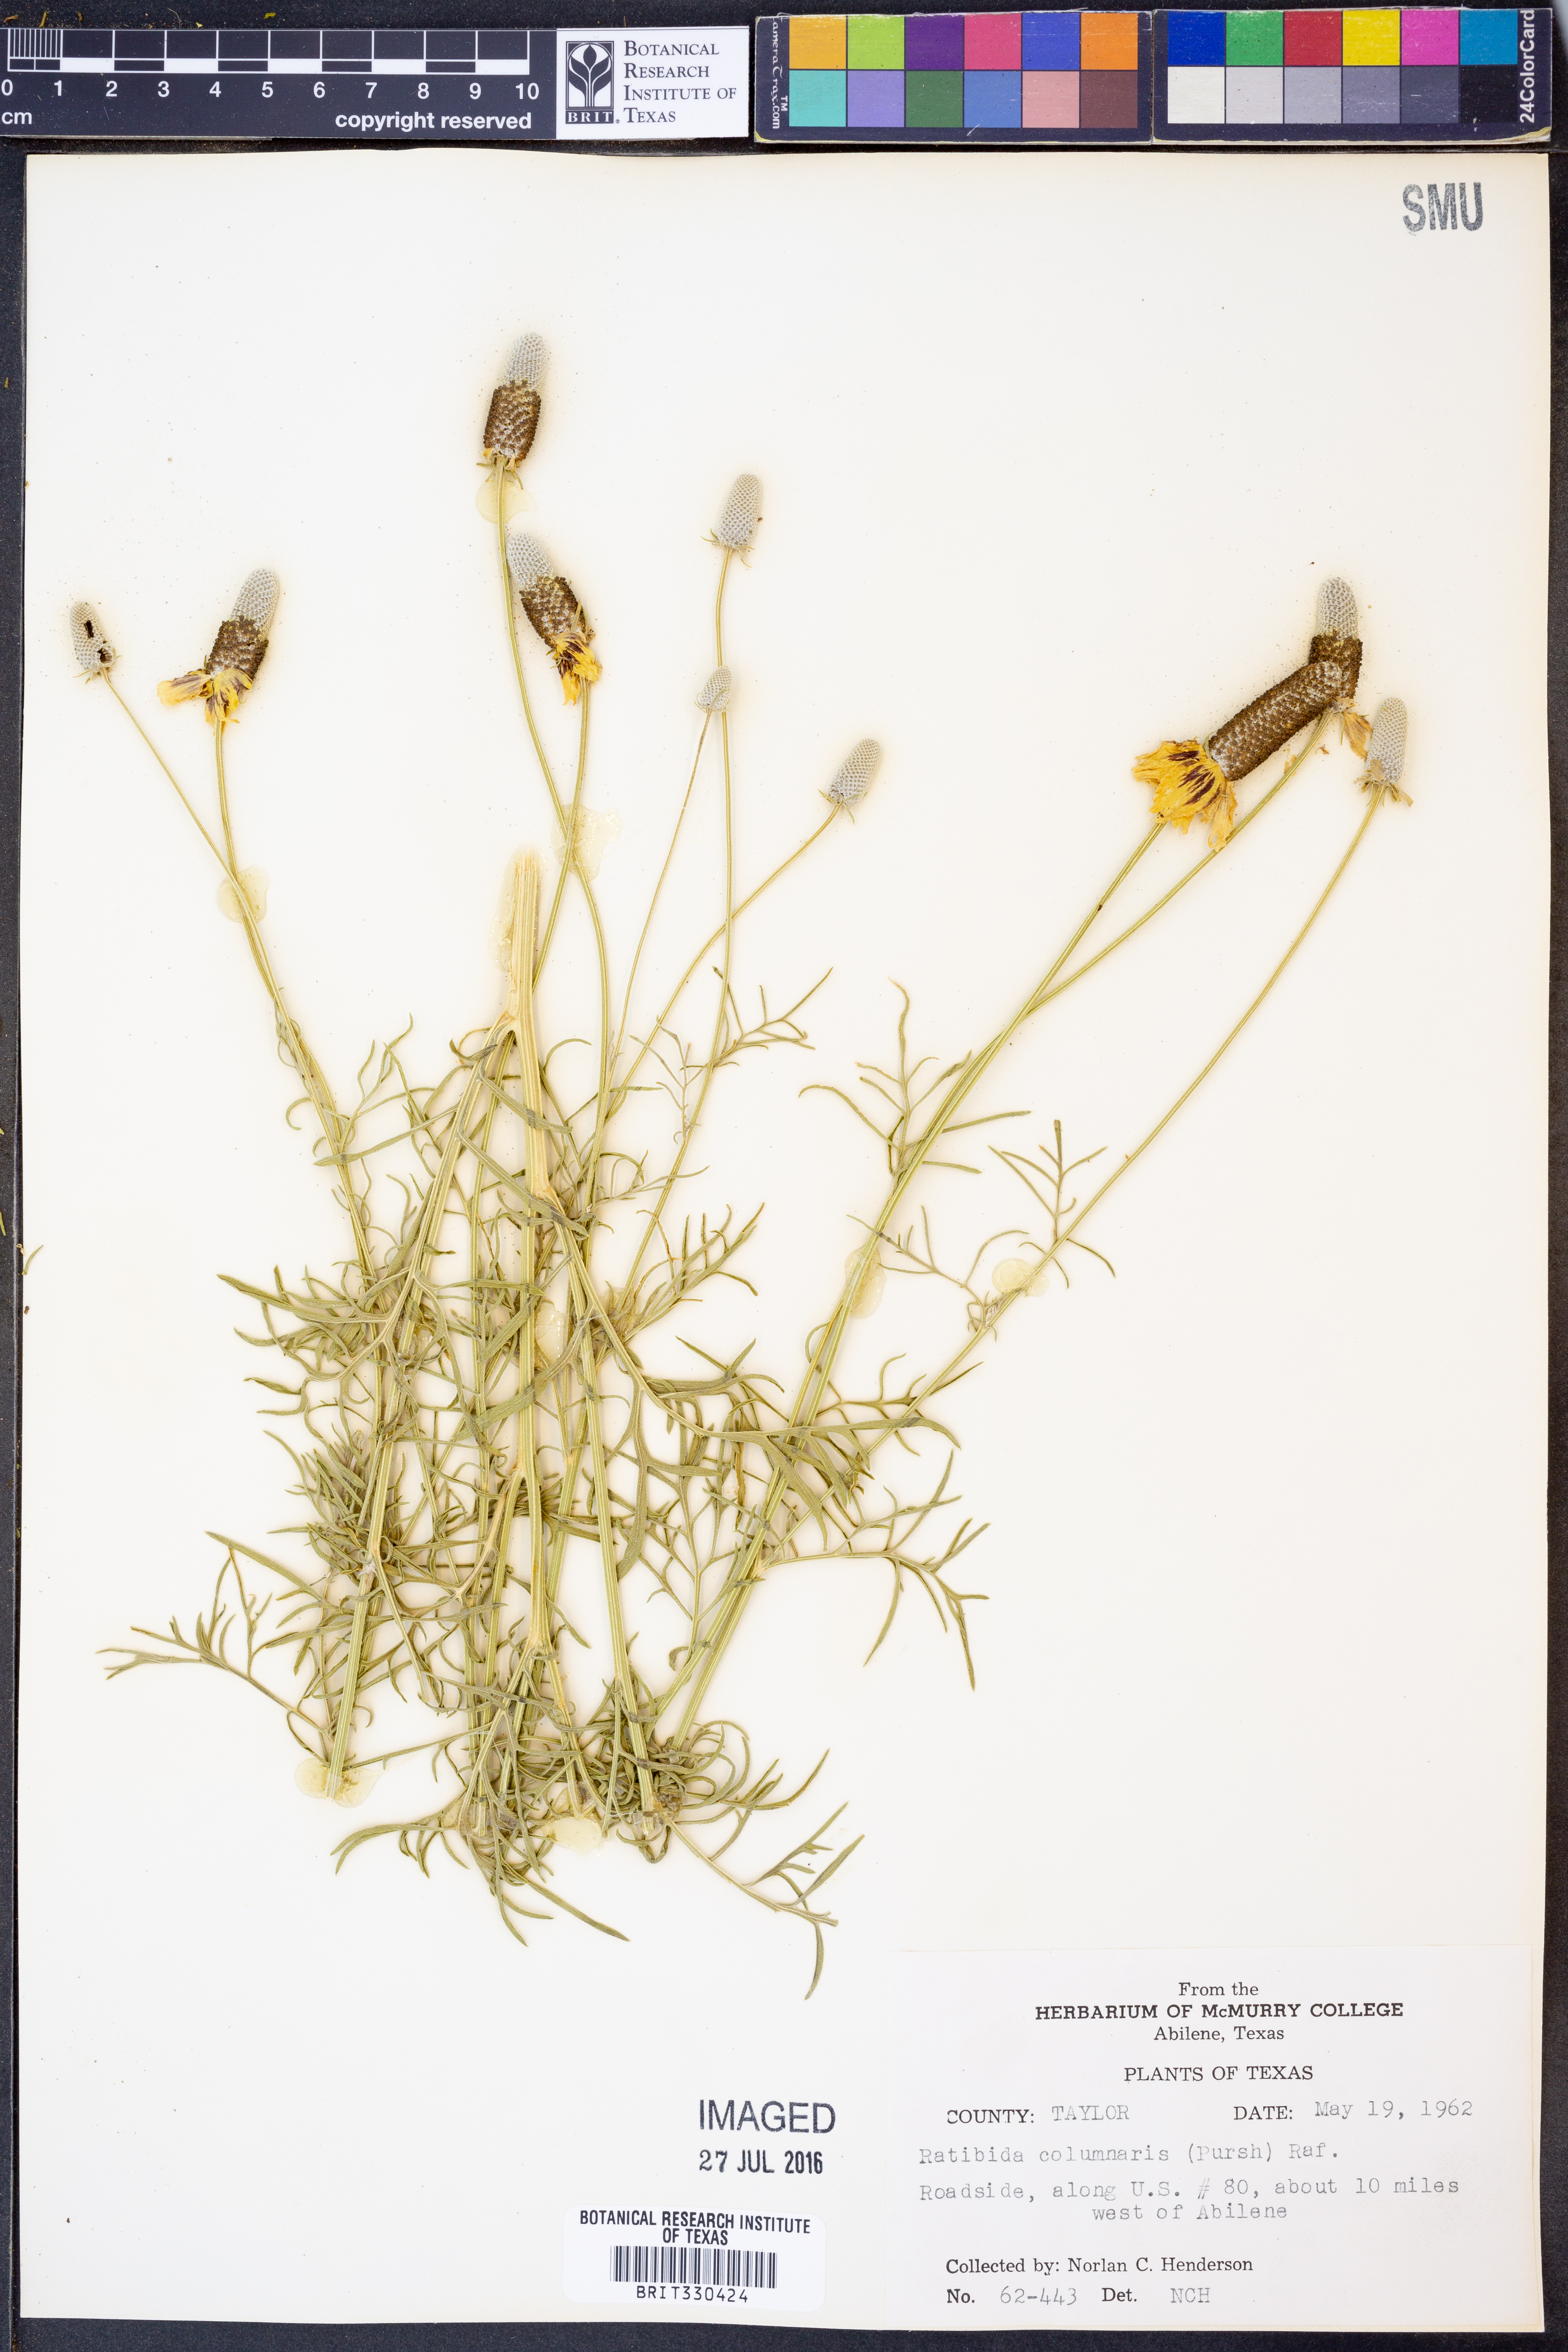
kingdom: Plantae
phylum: Tracheophyta
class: Magnoliopsida
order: Asterales
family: Asteraceae
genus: Ratibida
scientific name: Ratibida columnifera
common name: Prairie coneflower
